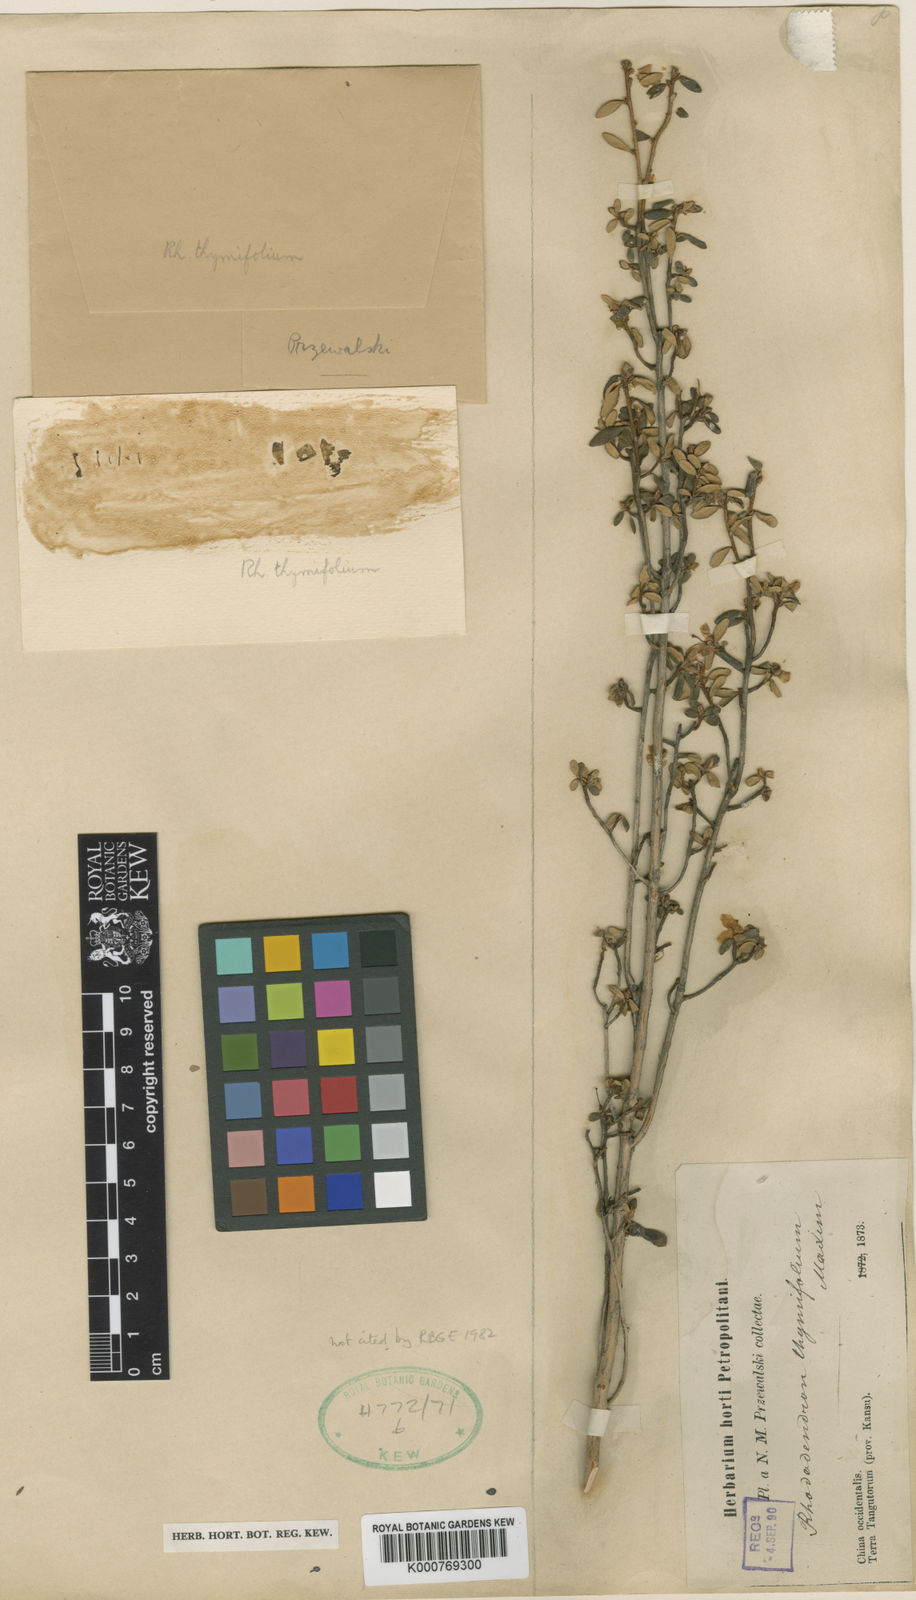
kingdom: Plantae
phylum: Tracheophyta
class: Magnoliopsida
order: Ericales
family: Ericaceae
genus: Rhododendron
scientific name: Rhododendron thymifolium
